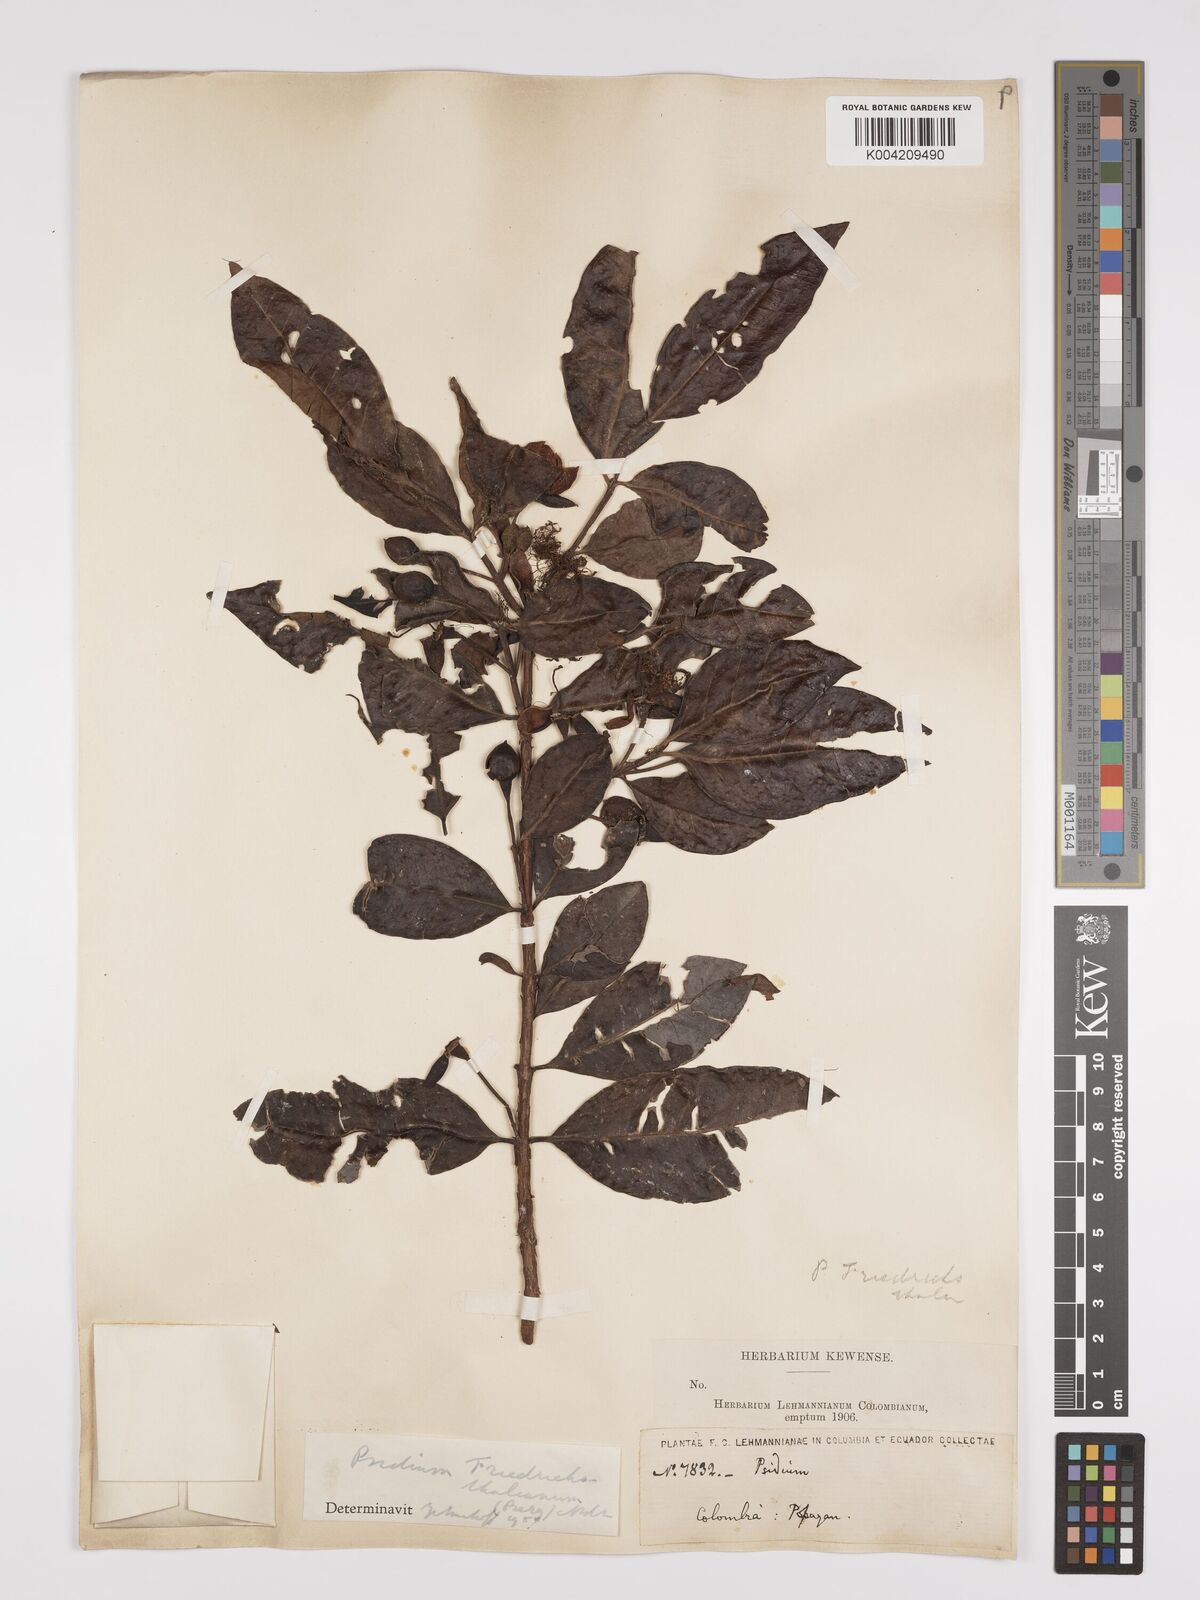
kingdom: Plantae
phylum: Tracheophyta
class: Magnoliopsida
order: Myrtales
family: Myrtaceae
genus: Psidium
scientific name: Psidium friedrichsthalianum
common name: Costa rican guava
